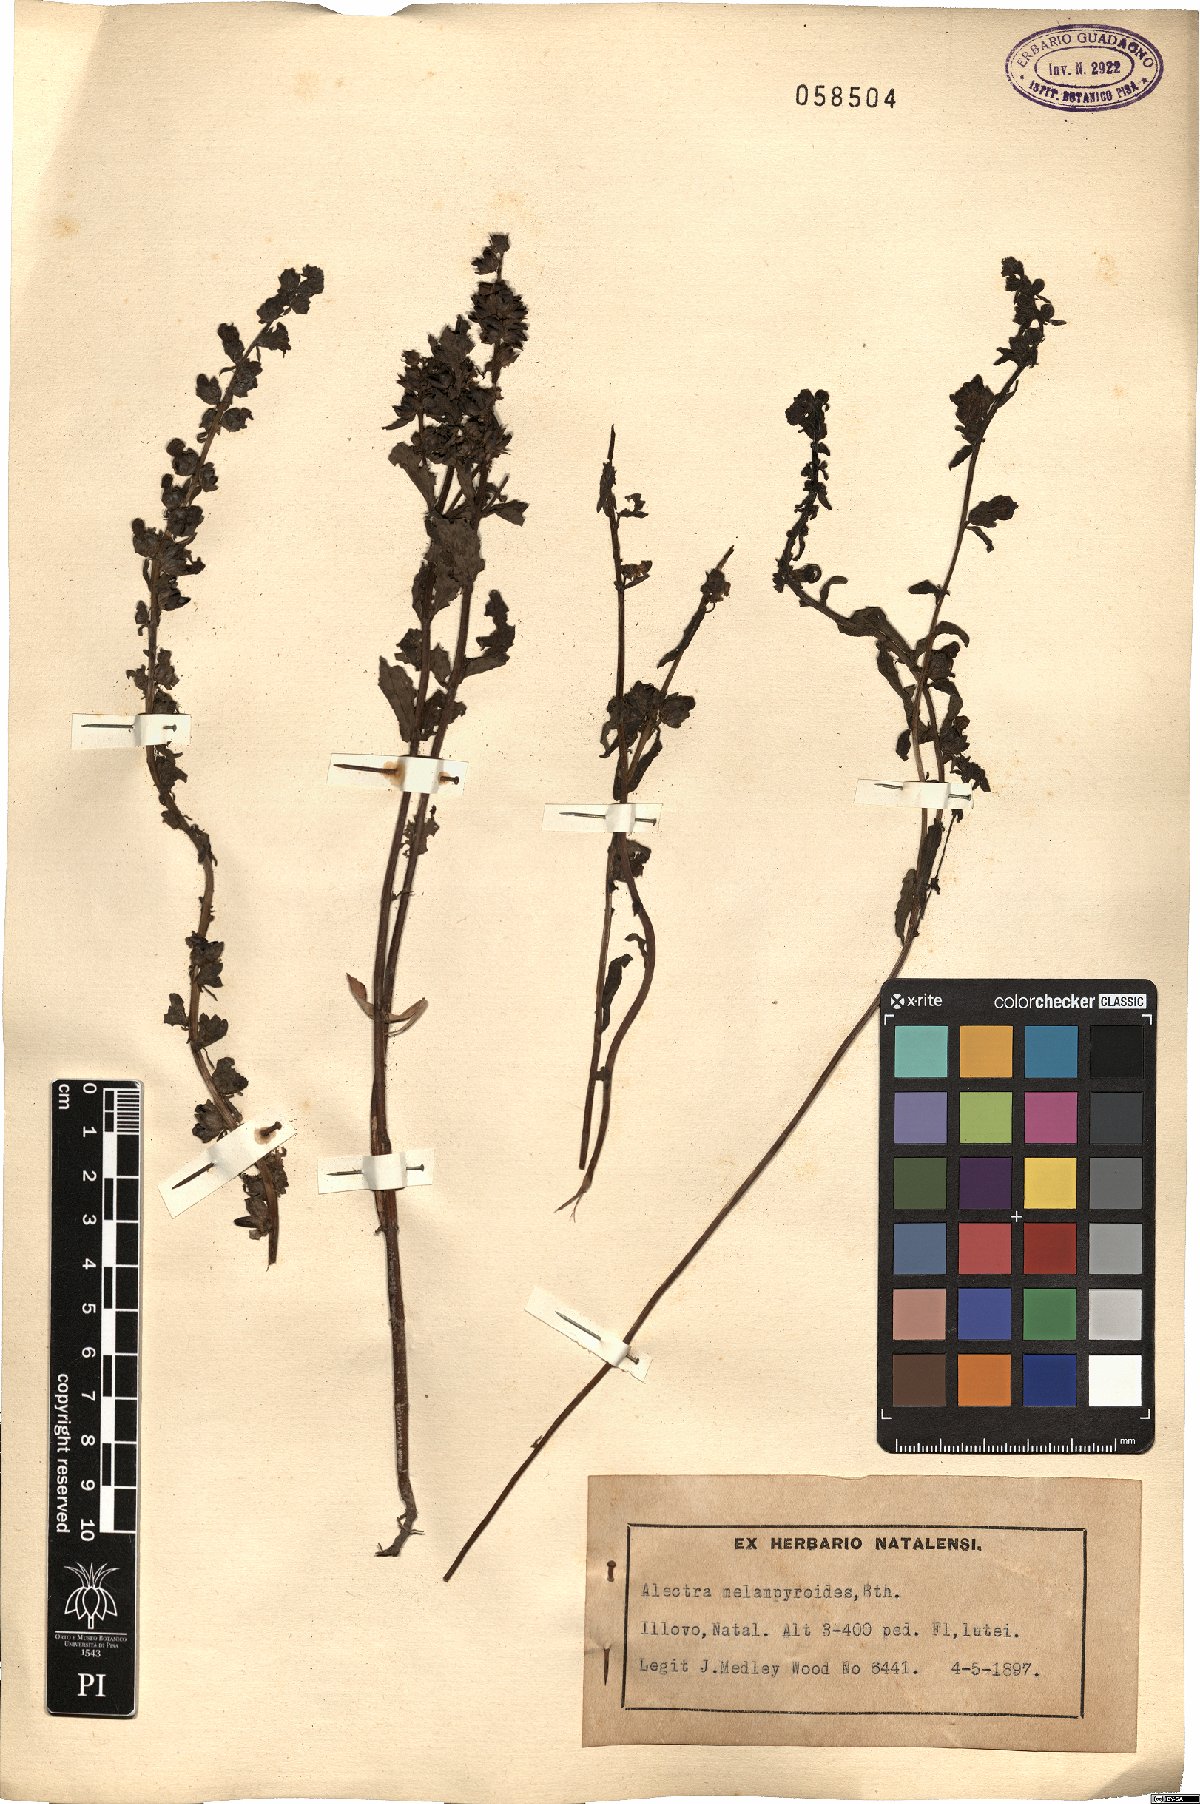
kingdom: Plantae
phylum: Tracheophyta
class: Magnoliopsida
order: Lamiales
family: Orobanchaceae
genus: Alectra
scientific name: Alectra sessiliflora
